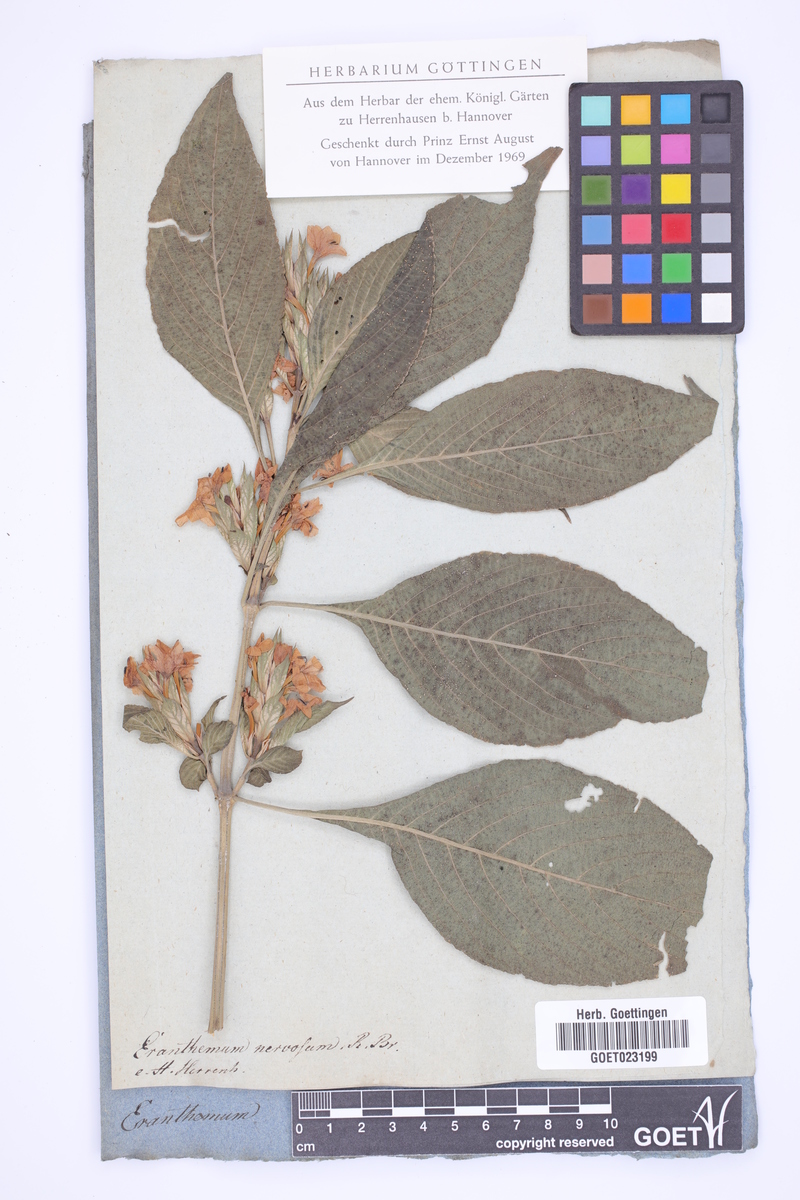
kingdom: Plantae
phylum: Tracheophyta
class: Magnoliopsida
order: Lamiales
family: Acanthaceae
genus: Eranthemum
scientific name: Eranthemum pulchellum
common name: Blue-sage
